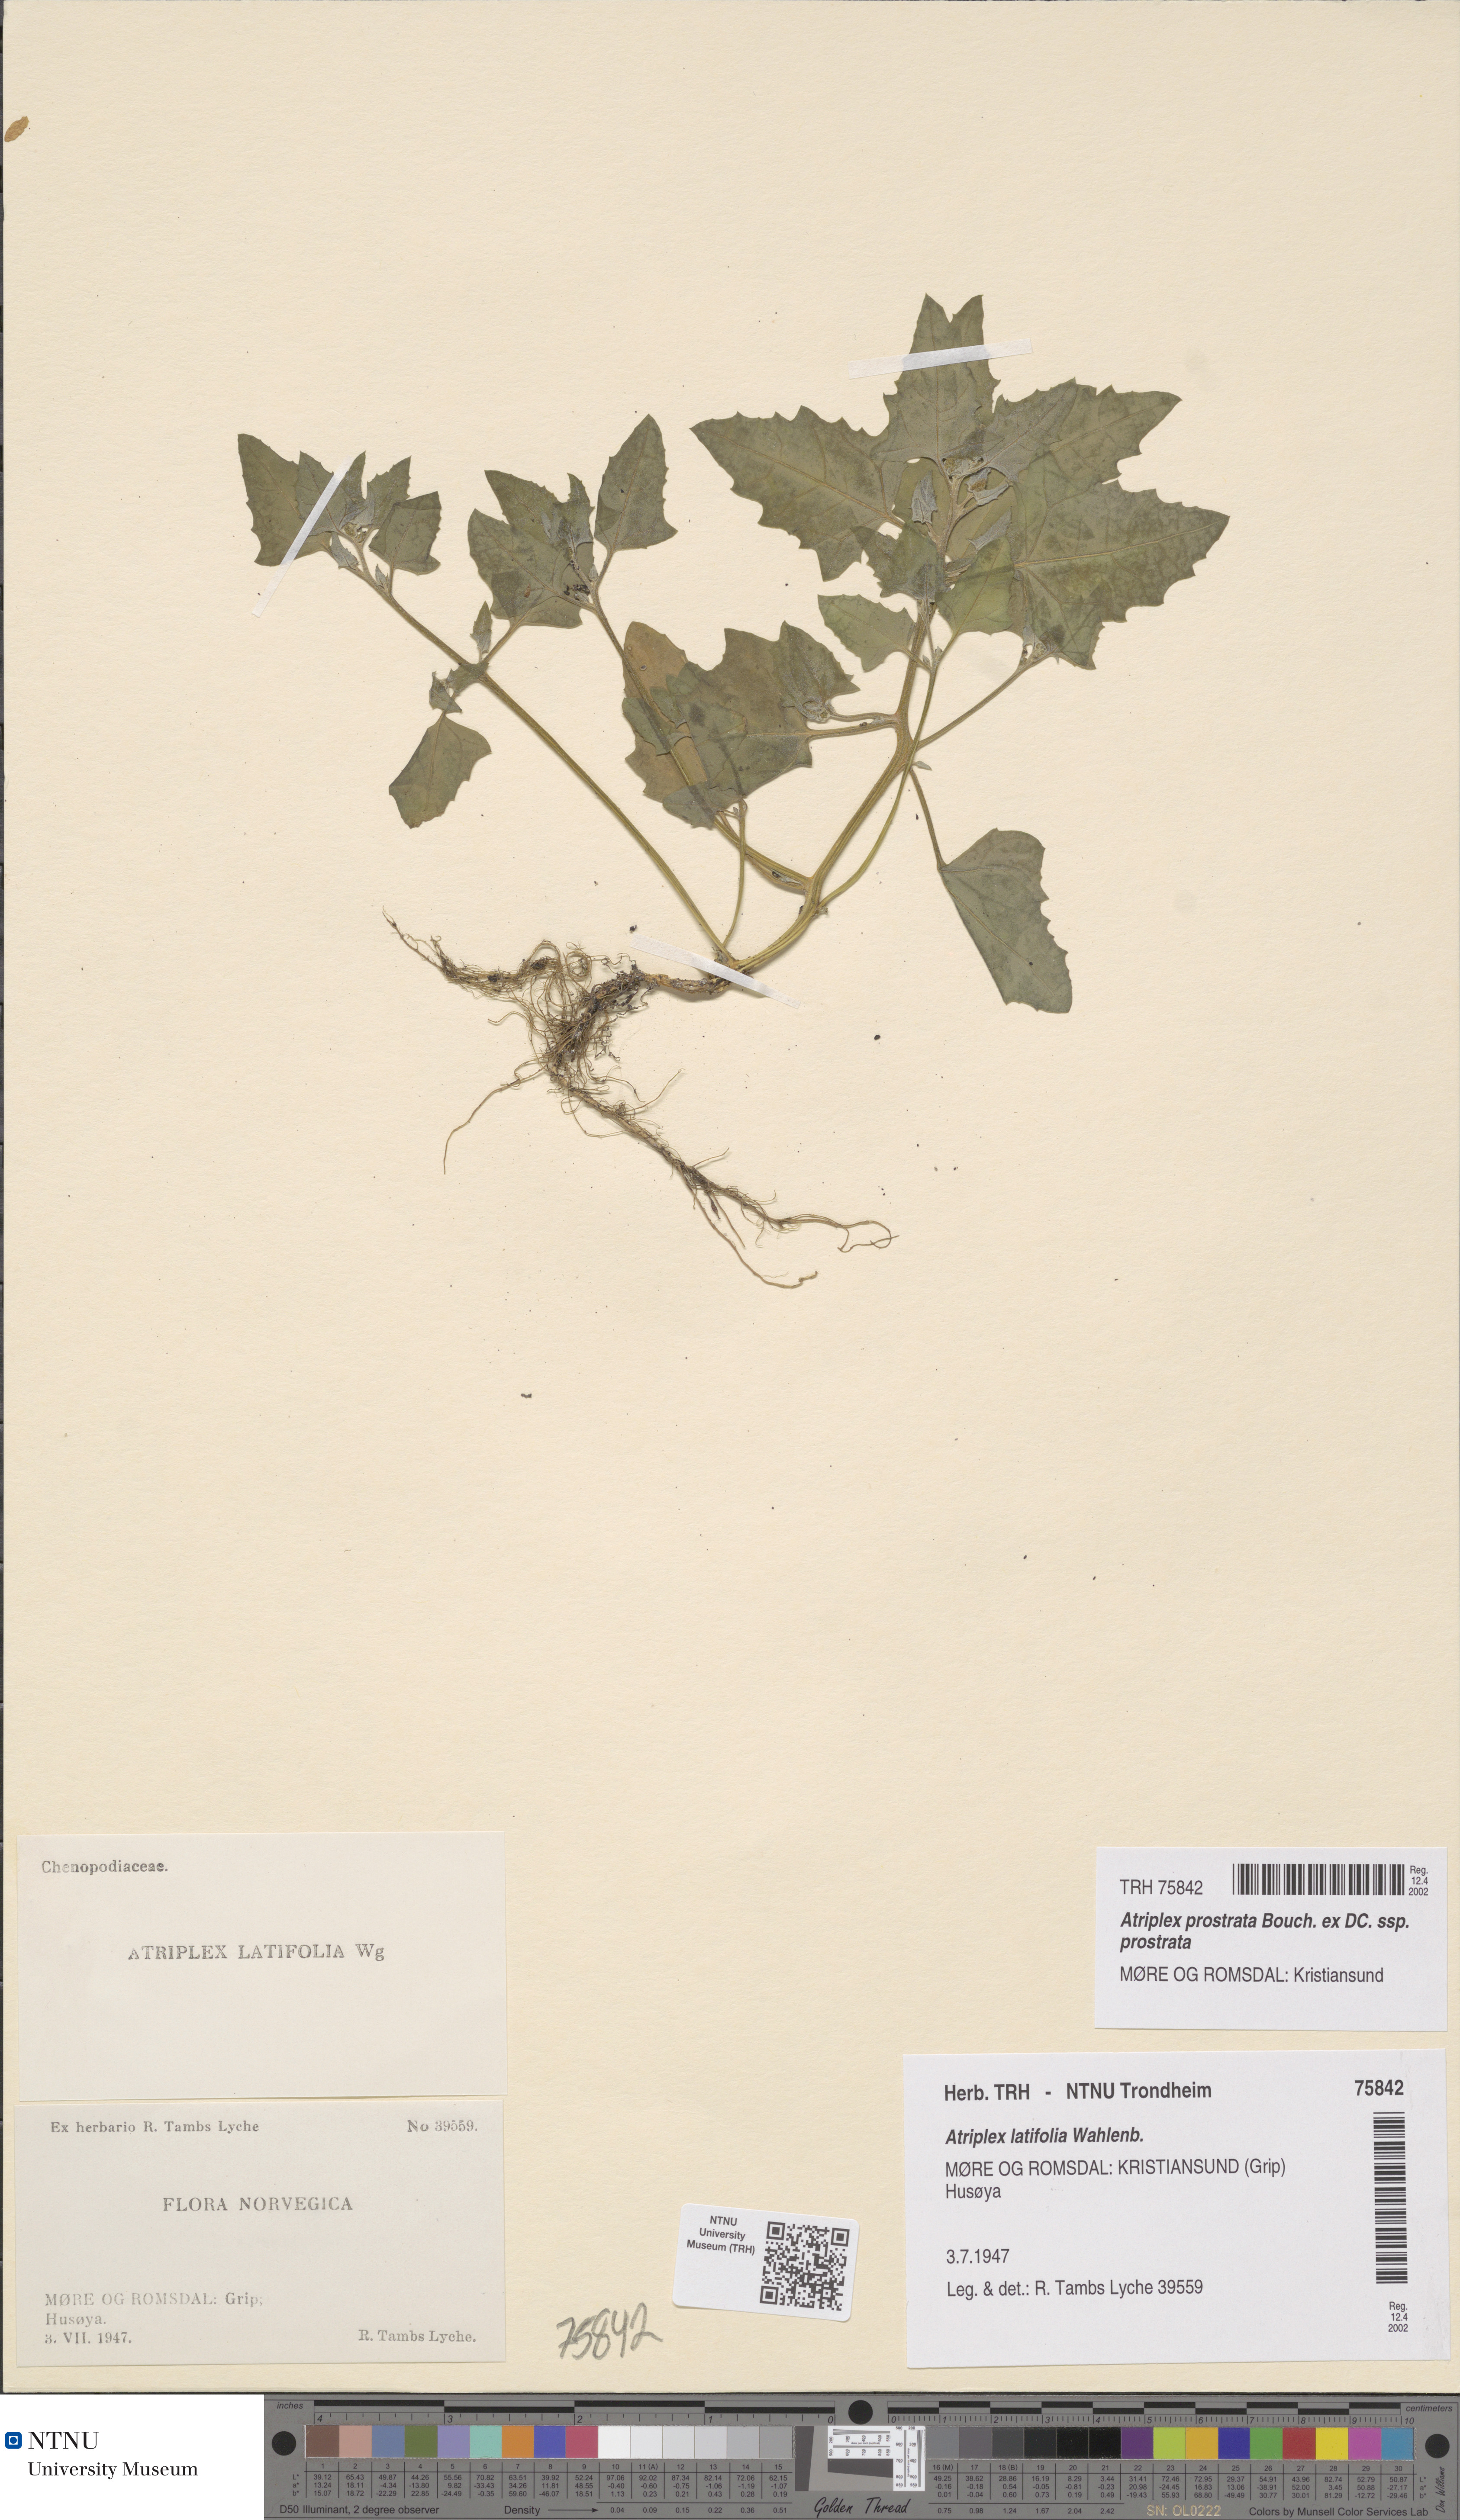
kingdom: Plantae
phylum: Tracheophyta
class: Magnoliopsida
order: Caryophyllales
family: Amaranthaceae
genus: Atriplex
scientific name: Atriplex prostrata
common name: Spear-leaved orache
